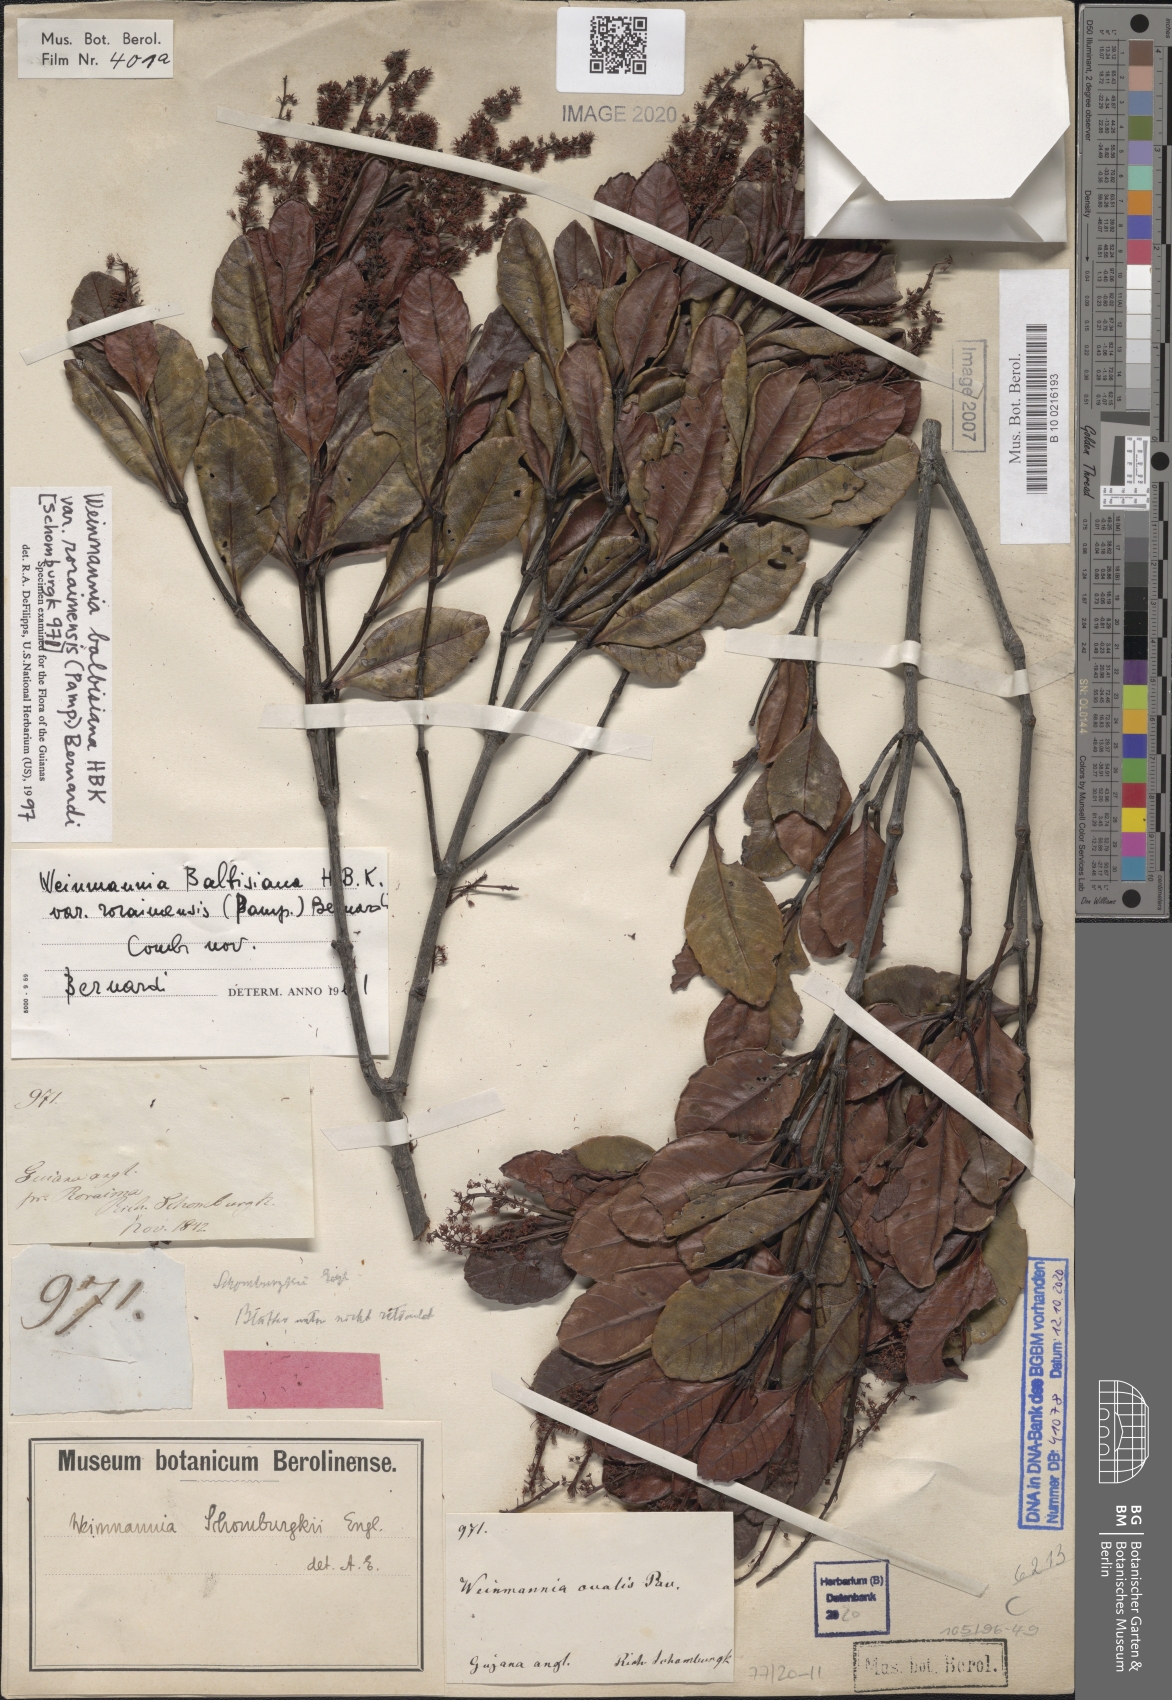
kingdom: Plantae
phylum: Tracheophyta
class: Magnoliopsida
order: Oxalidales
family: Cunoniaceae
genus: Weinmannia
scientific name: Weinmannia elliptica
